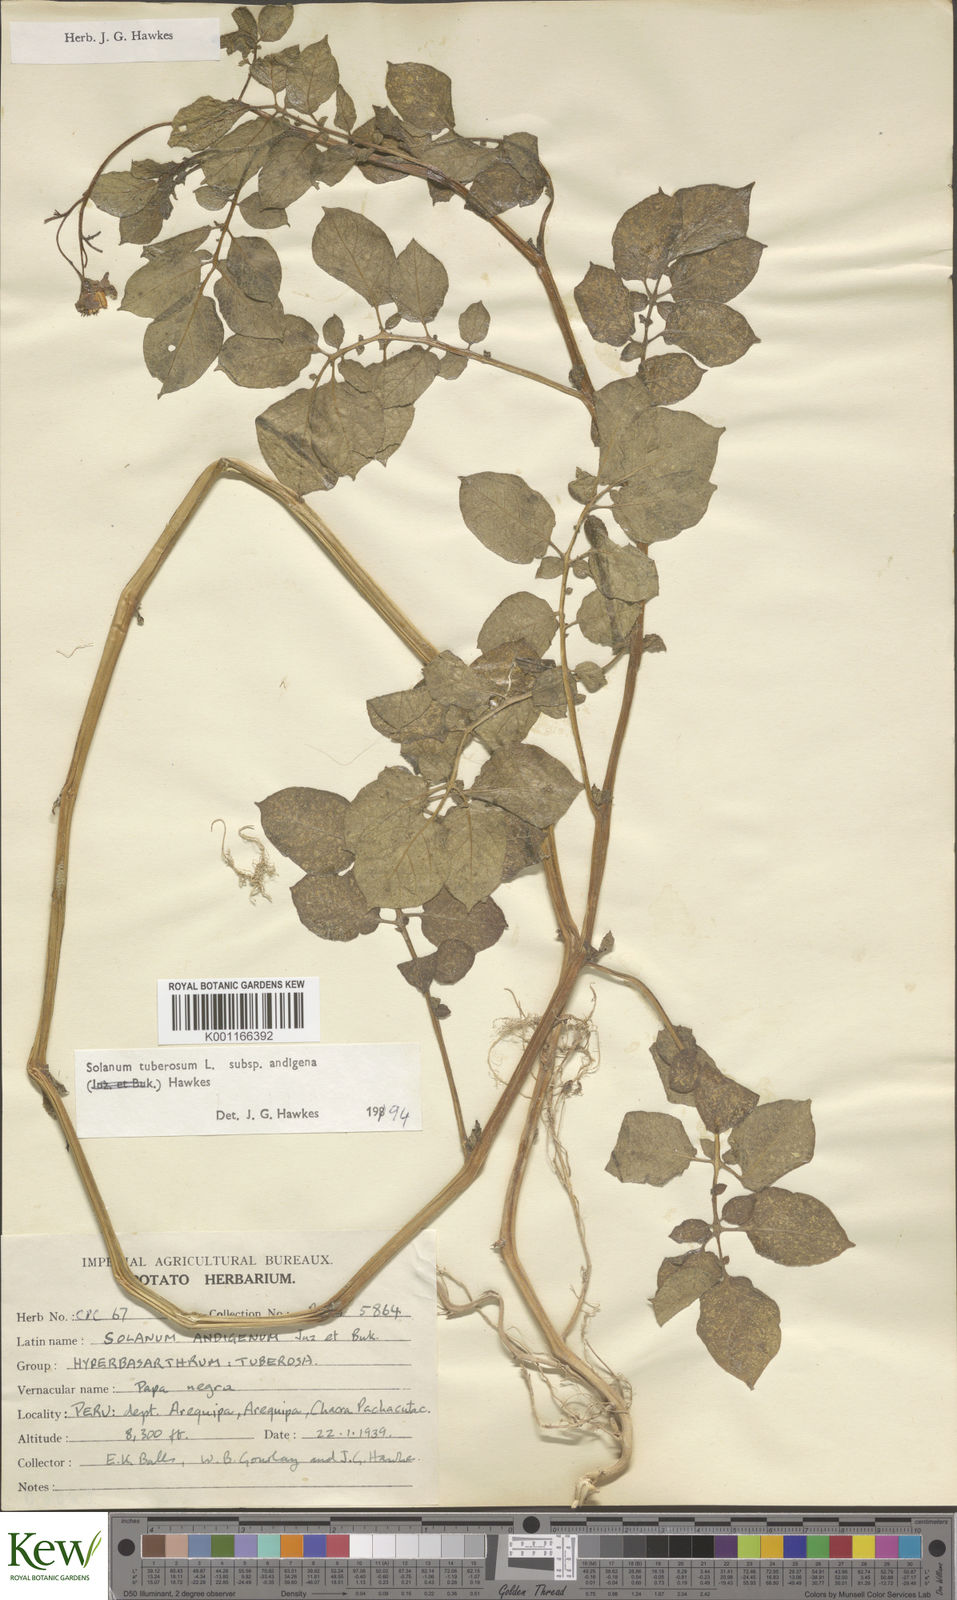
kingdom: Plantae
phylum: Tracheophyta
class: Magnoliopsida
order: Solanales
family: Solanaceae
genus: Solanum
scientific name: Solanum tuberosum
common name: Potato
